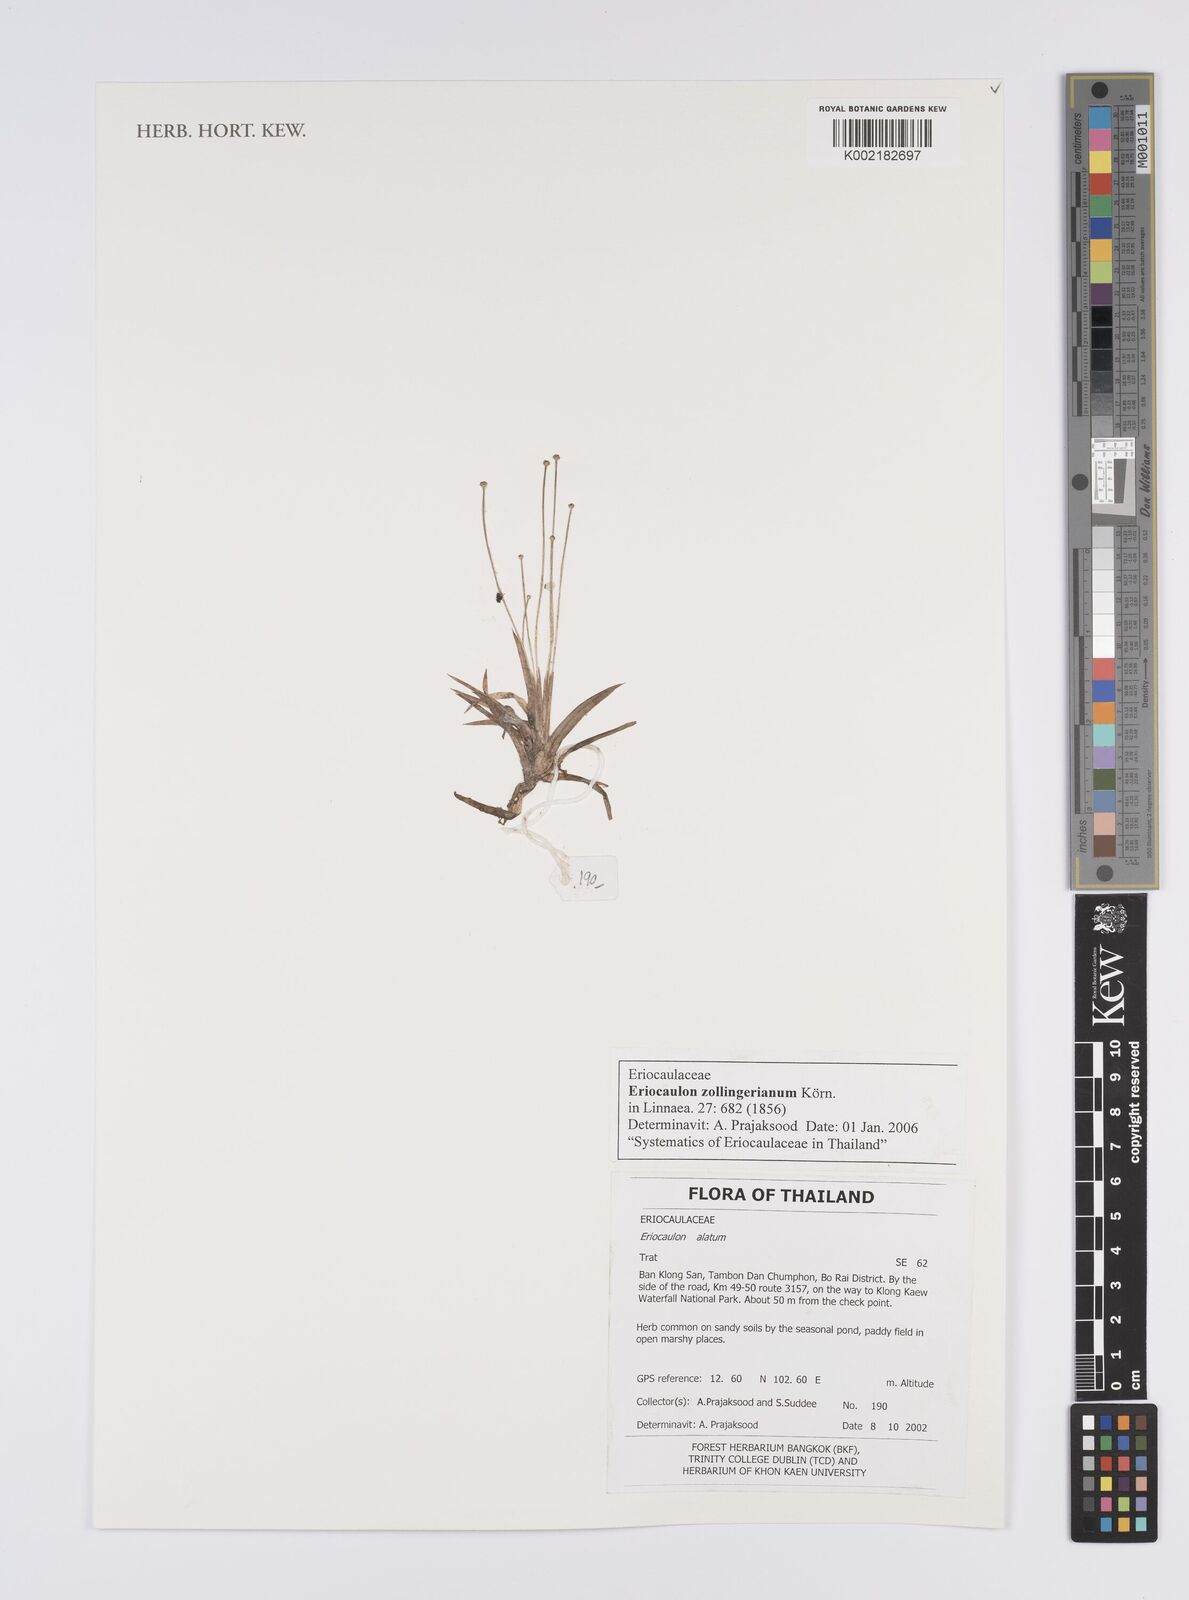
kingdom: Plantae
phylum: Tracheophyta
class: Liliopsida
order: Poales
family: Eriocaulaceae
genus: Eriocaulon
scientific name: Eriocaulon zollingerianum
